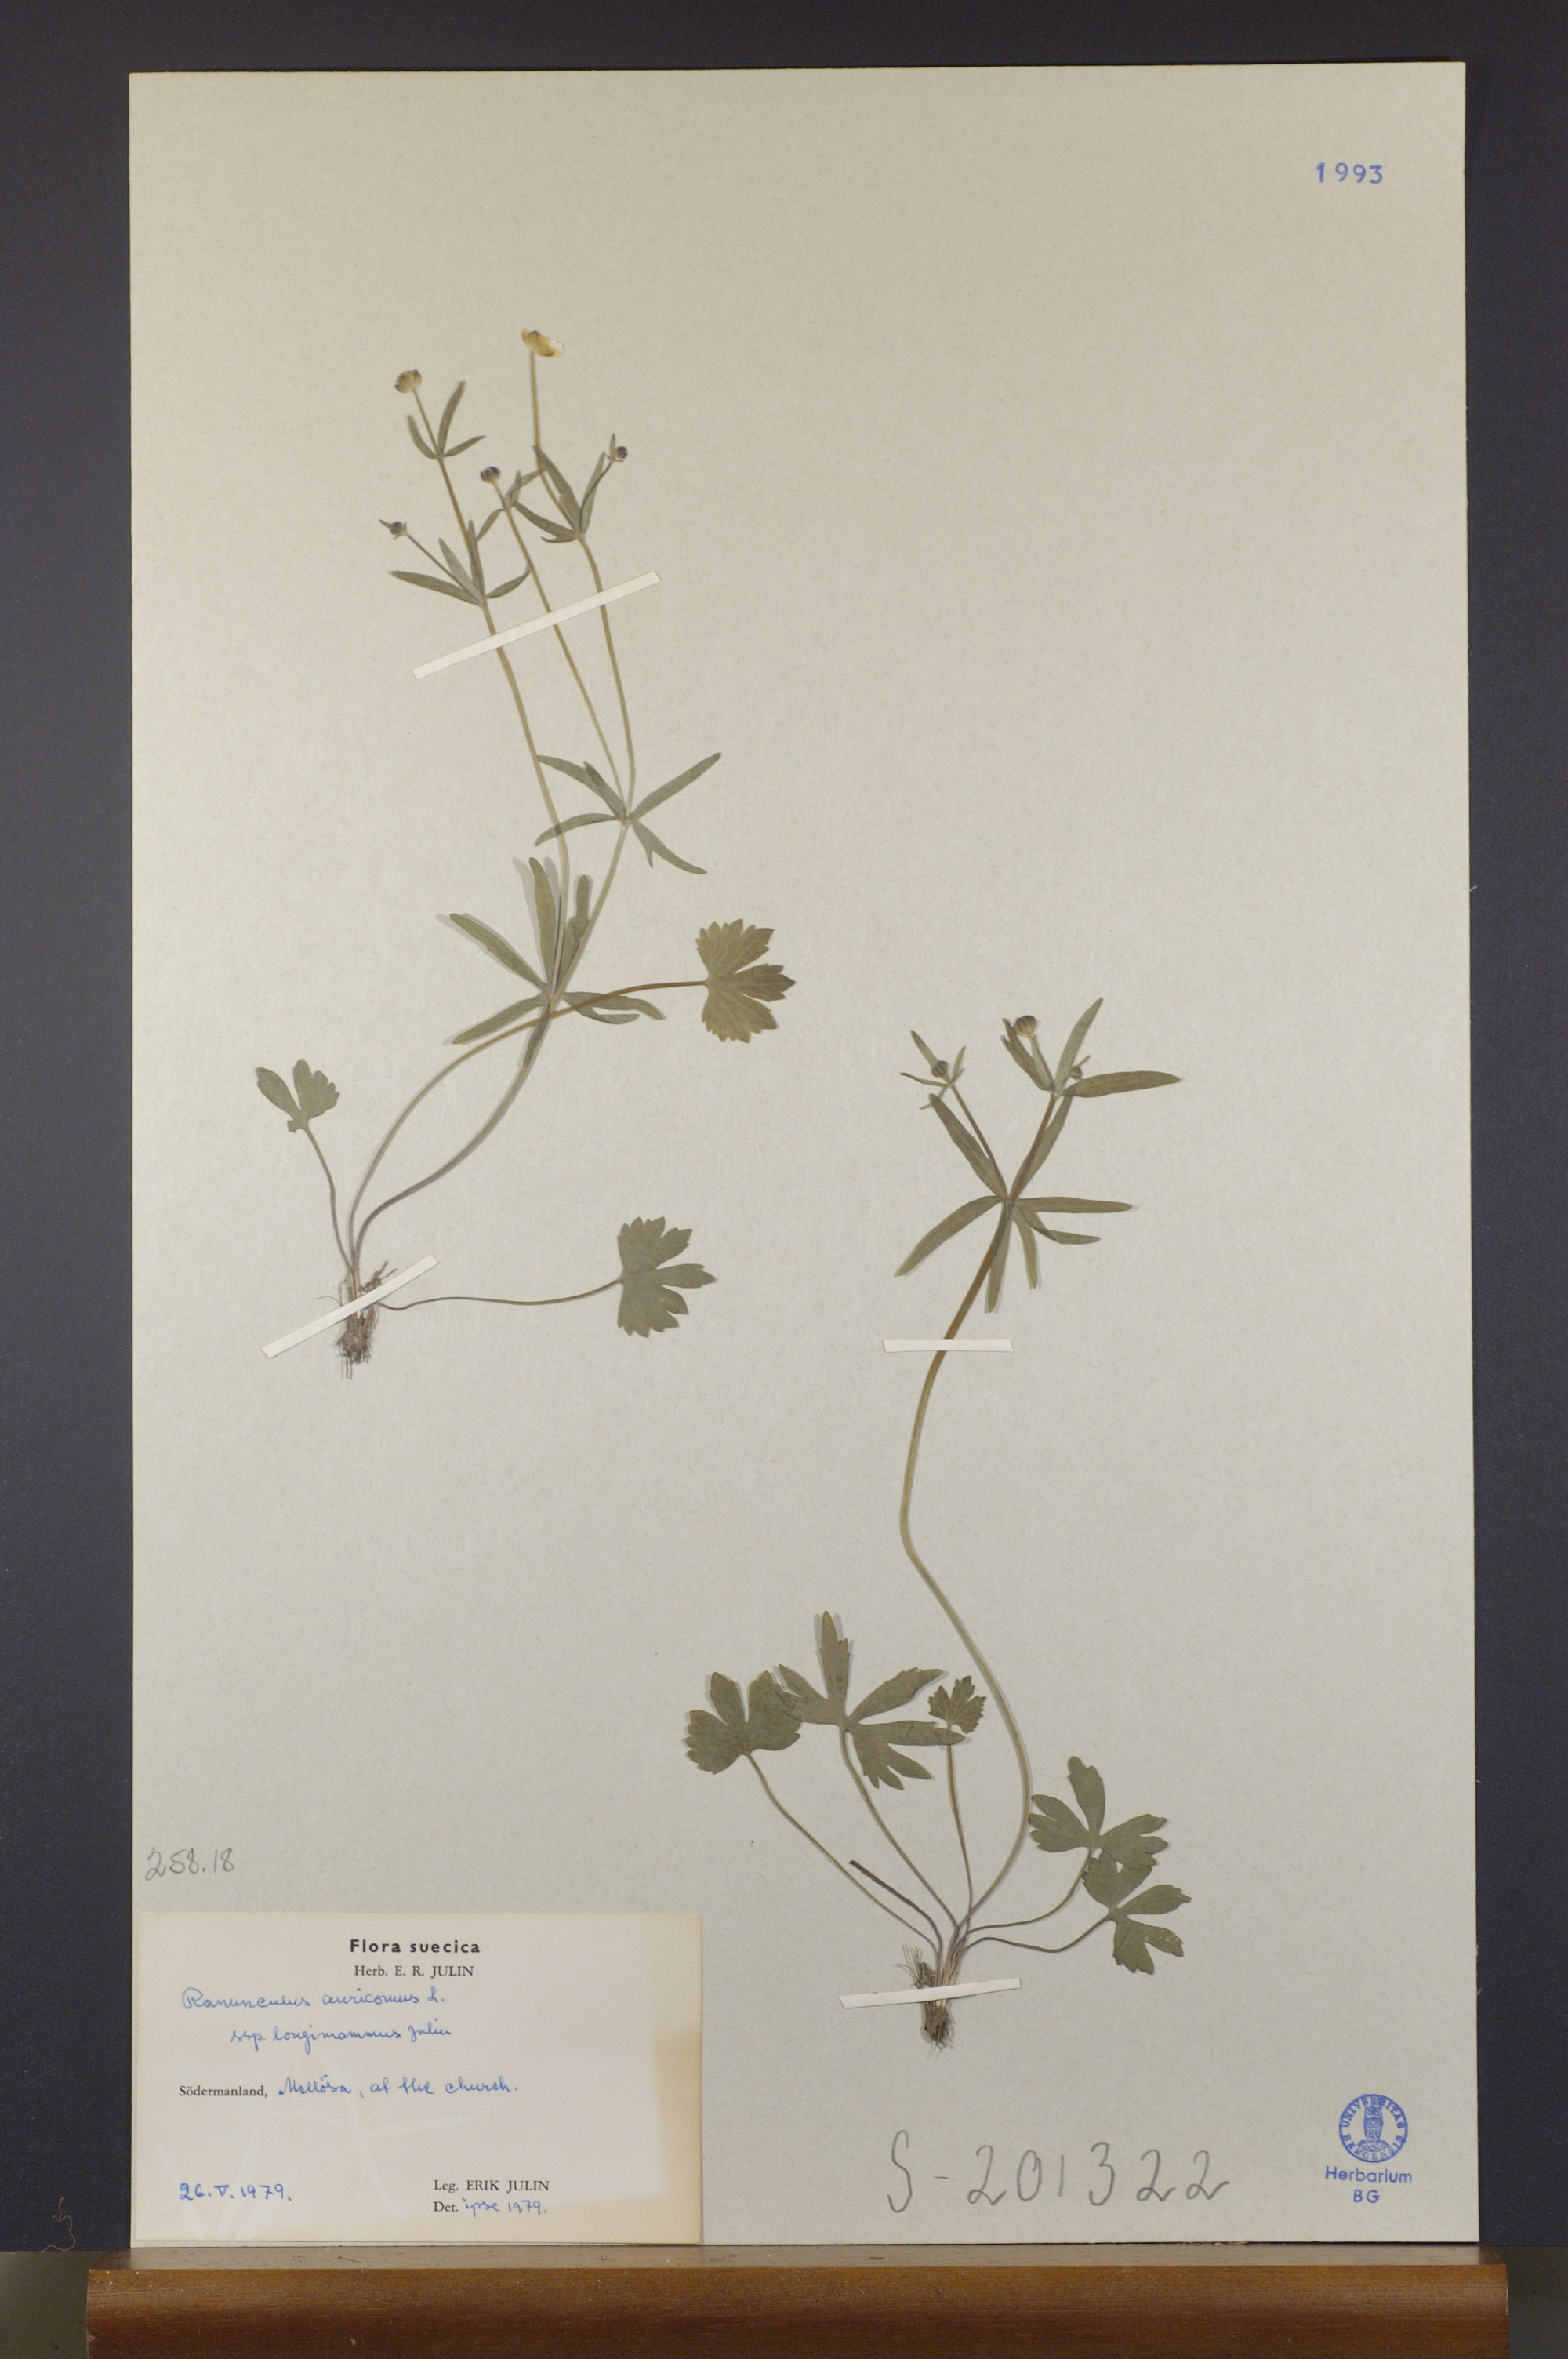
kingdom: Plantae
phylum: Tracheophyta
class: Magnoliopsida
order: Ranunculales
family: Ranunculaceae
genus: Ranunculus
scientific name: Ranunculus longimammus
